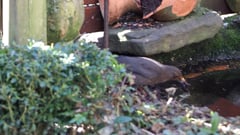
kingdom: Animalia
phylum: Chordata
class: Aves
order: Passeriformes
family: Turdidae
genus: Turdus
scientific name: Turdus merula
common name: Common blackbird
